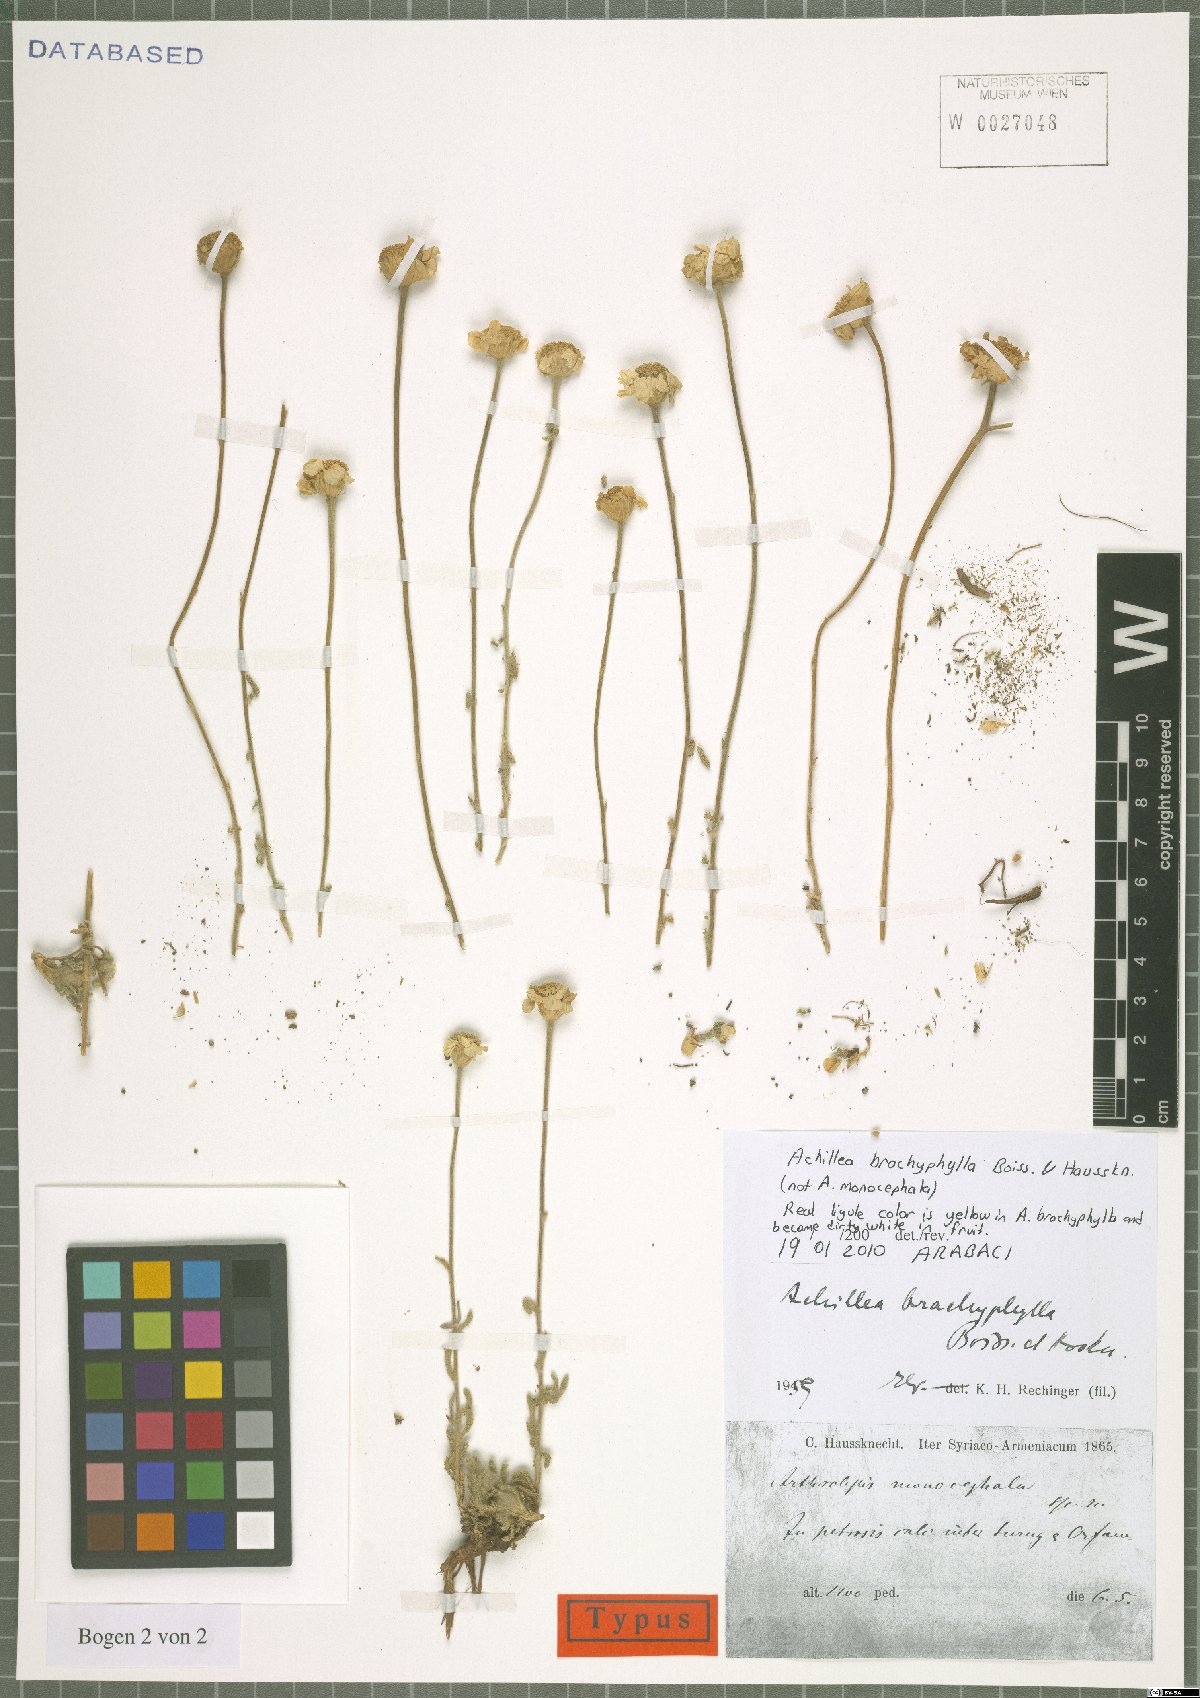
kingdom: Plantae
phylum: Tracheophyta
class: Magnoliopsida
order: Asterales
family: Asteraceae
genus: Achillea
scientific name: Achillea brachyphylla
